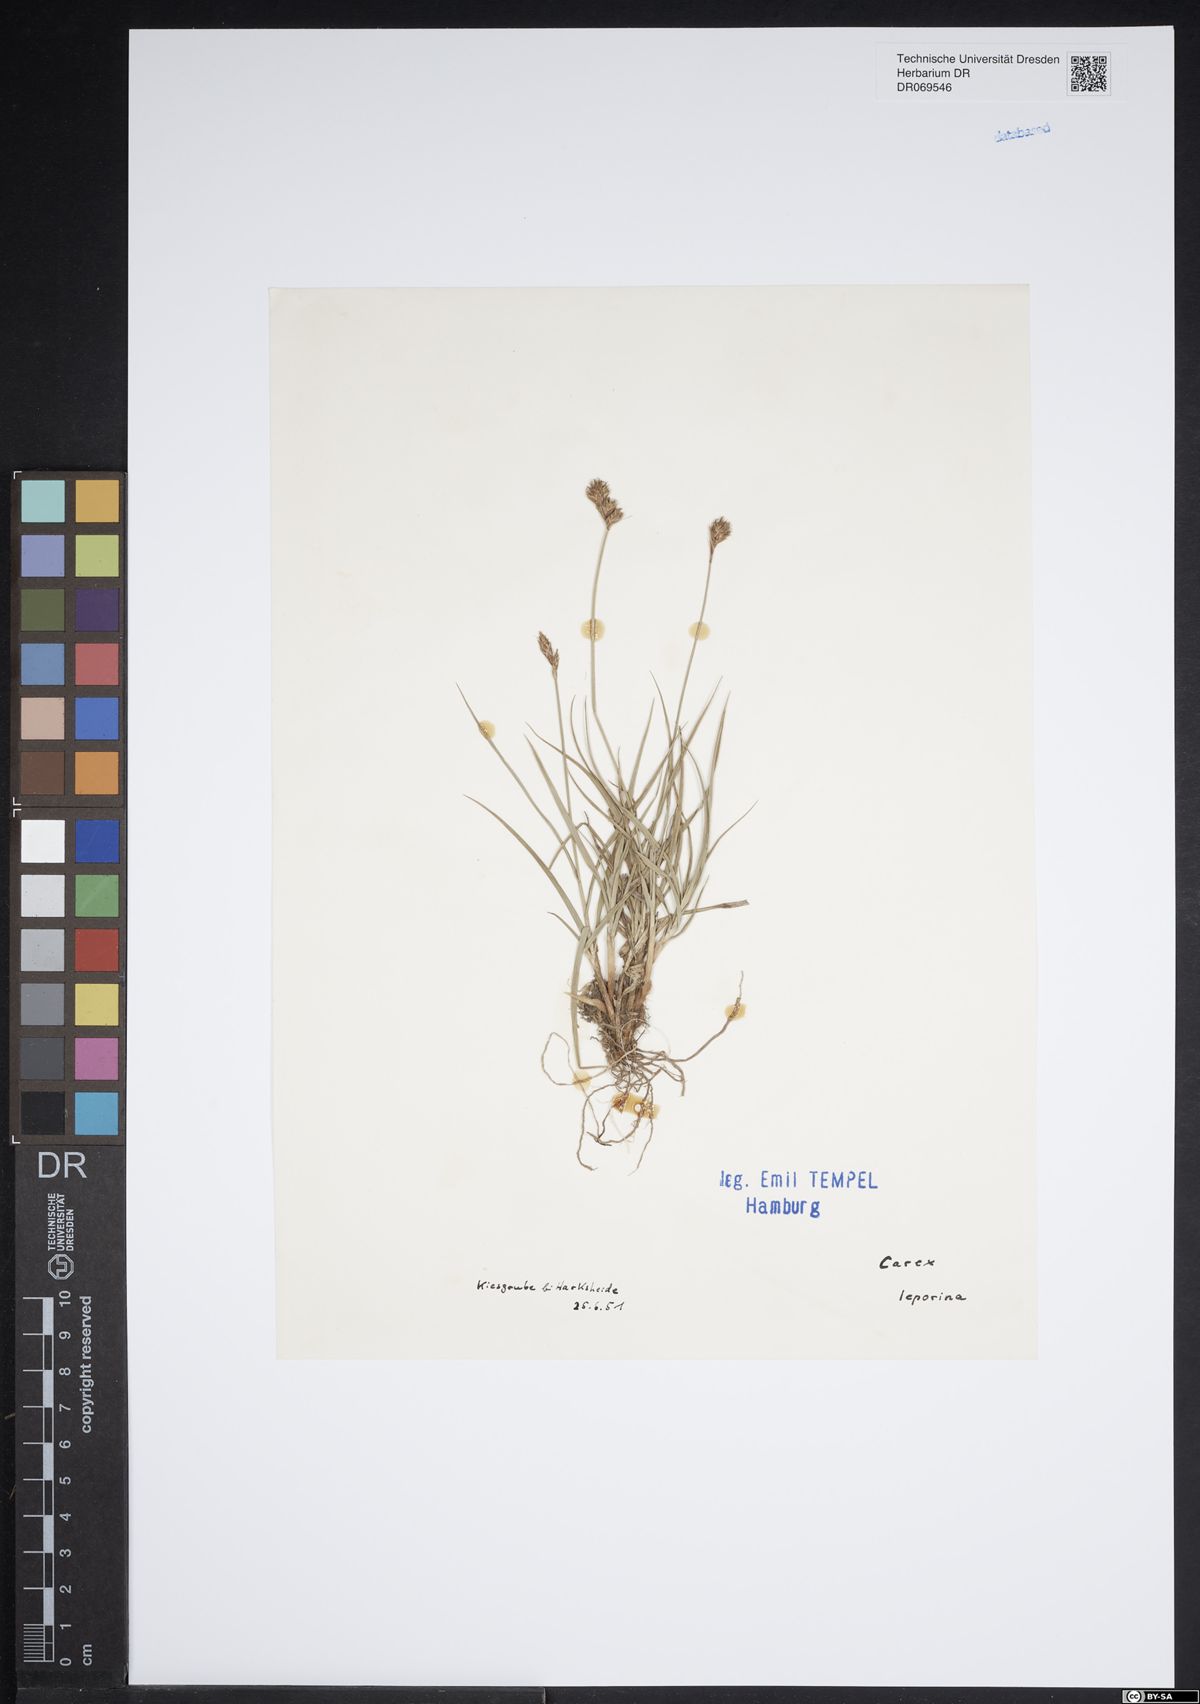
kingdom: Plantae
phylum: Tracheophyta
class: Liliopsida
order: Poales
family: Cyperaceae
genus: Carex
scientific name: Carex leporina
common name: Oval sedge
